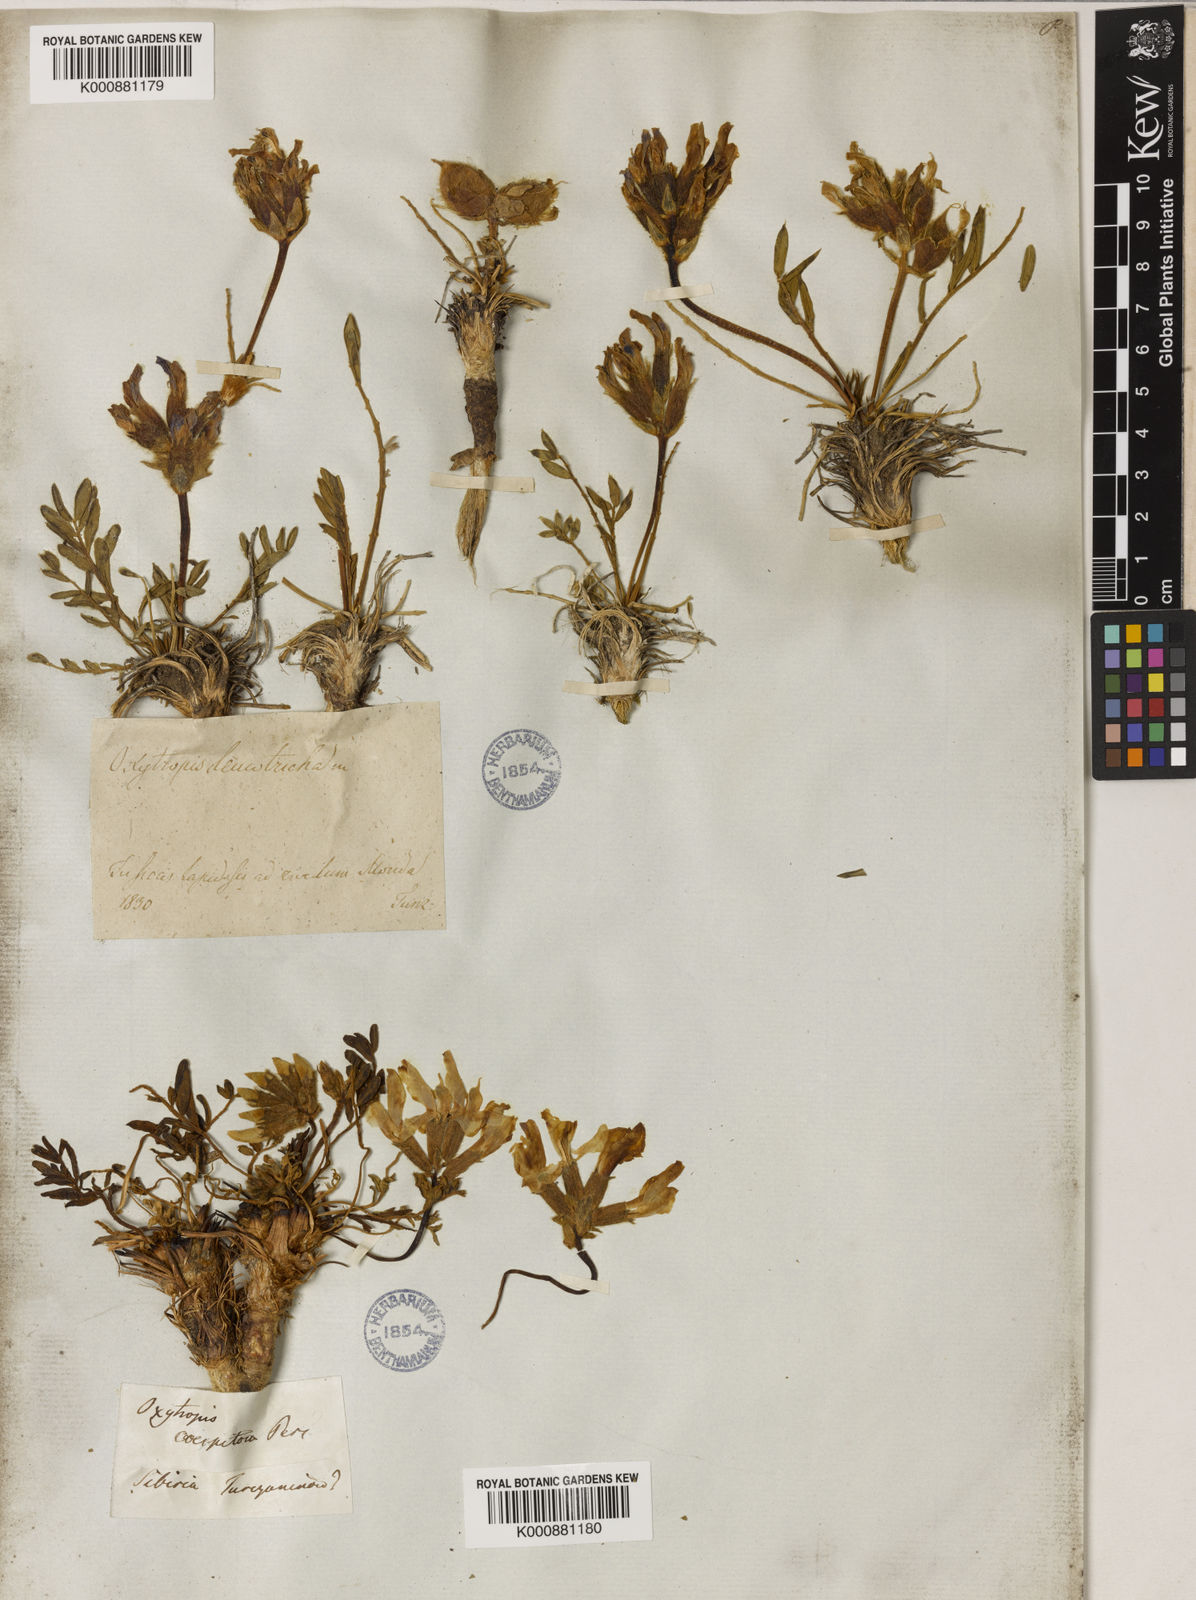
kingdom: Plantae
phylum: Tracheophyta
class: Magnoliopsida
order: Fabales
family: Fabaceae
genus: Oxytropis
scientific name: Oxytropis leucotricha
